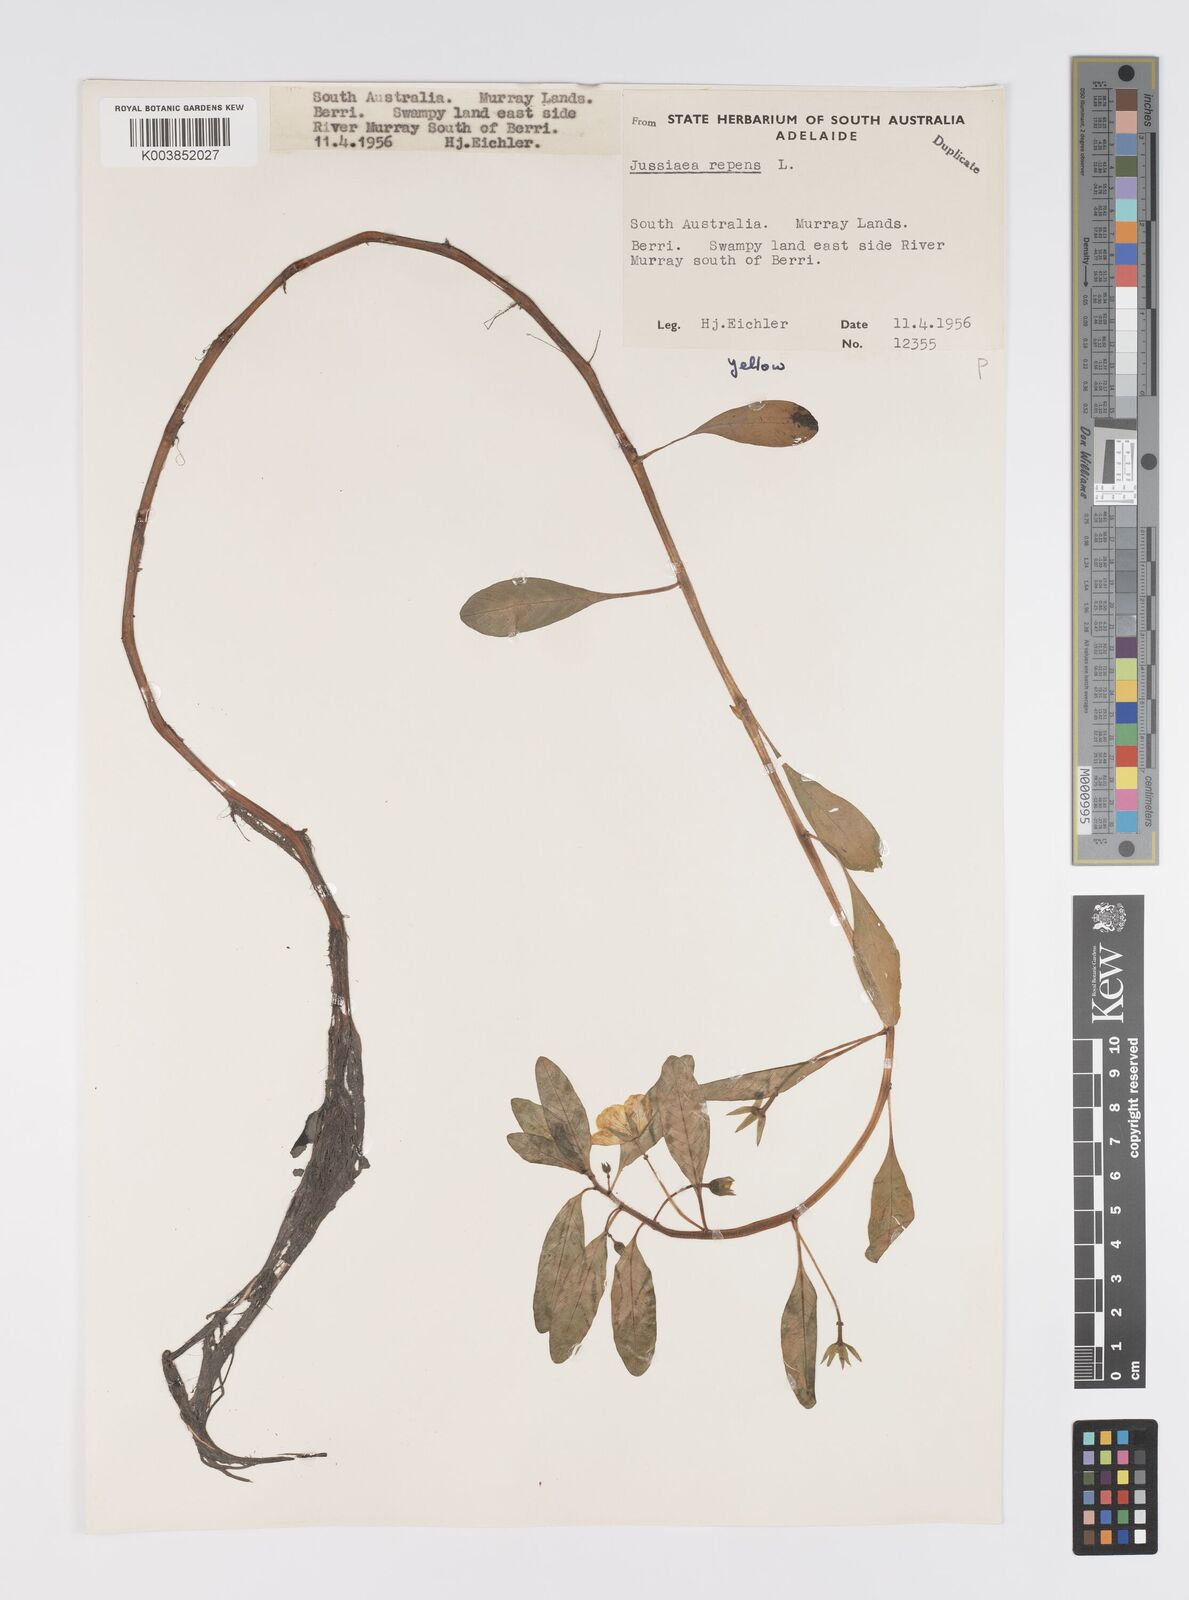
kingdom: Plantae
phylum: Tracheophyta
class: Magnoliopsida
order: Myrtales
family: Onagraceae
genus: Ludwigia
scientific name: Ludwigia peploides
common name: Floating primrose-willow
